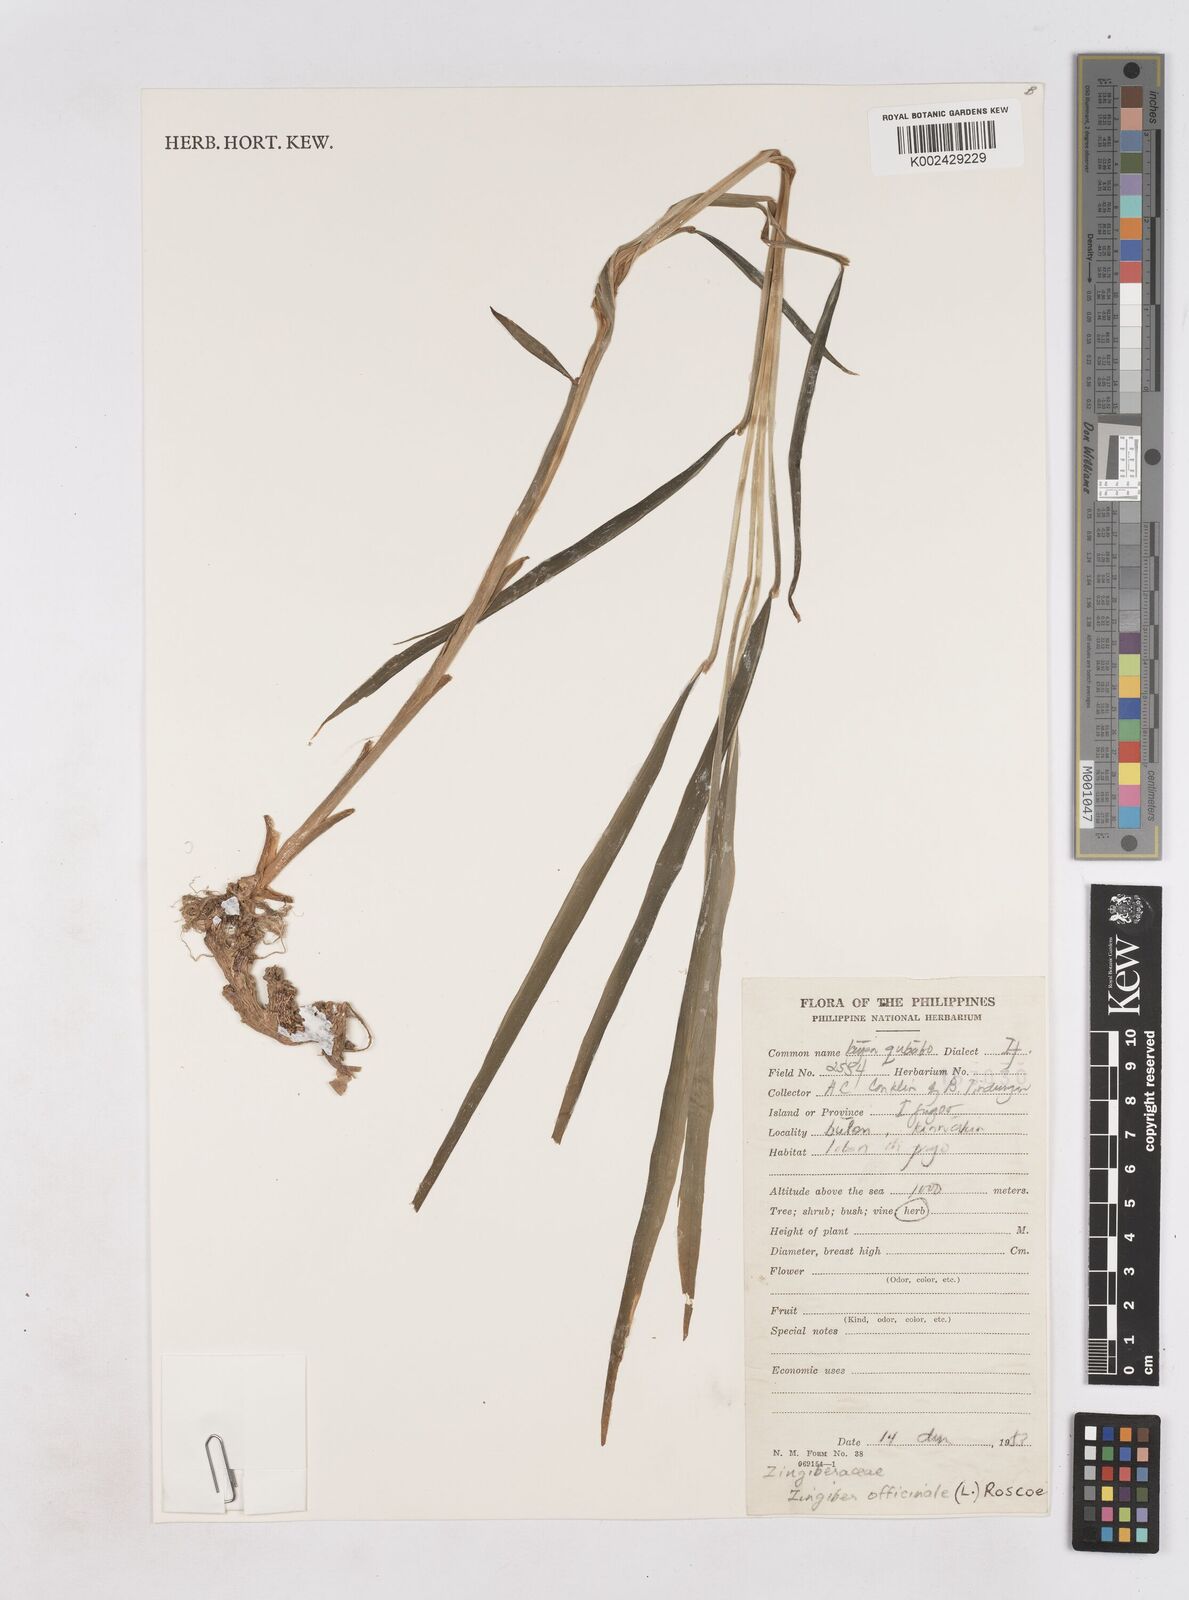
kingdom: Plantae
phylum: Tracheophyta
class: Liliopsida
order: Zingiberales
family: Zingiberaceae
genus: Zingiber
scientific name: Zingiber officinale
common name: Ginger
